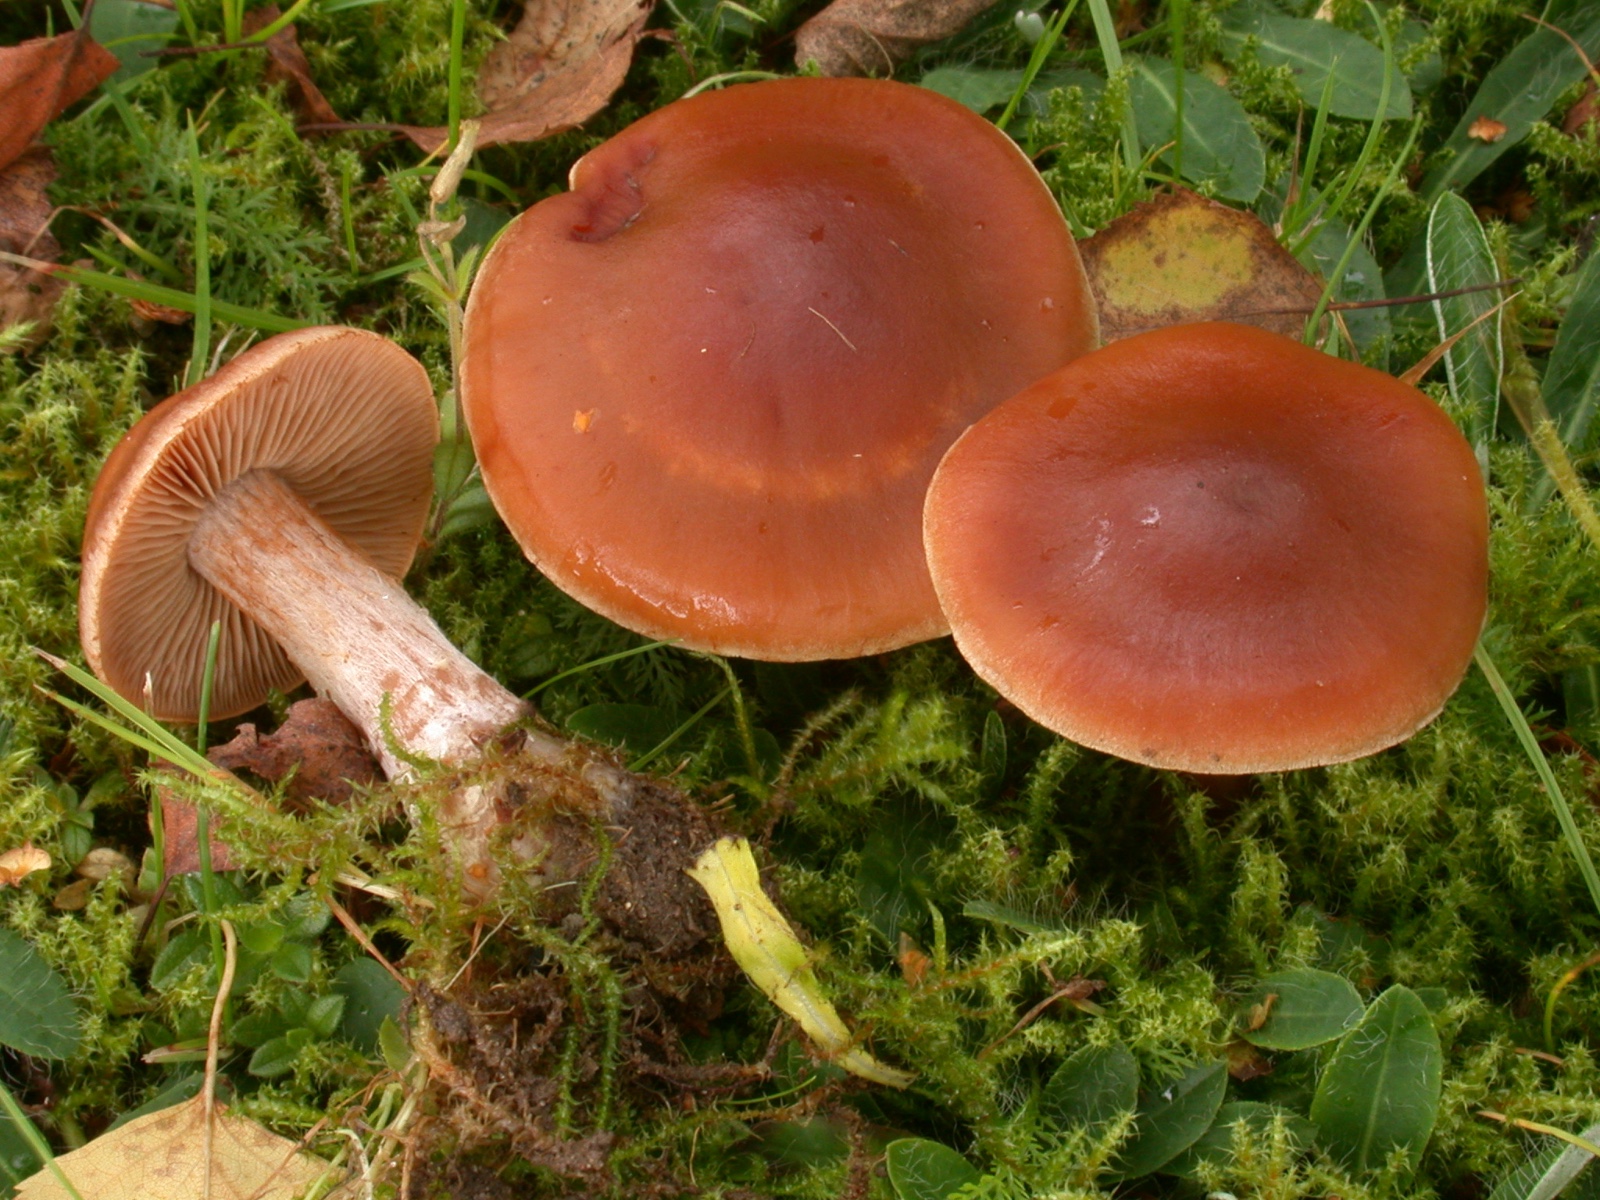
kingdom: Fungi
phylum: Basidiomycota
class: Agaricomycetes
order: Agaricales
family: Cortinariaceae
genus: Cortinarius
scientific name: Cortinarius subbalaustinus
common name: birke-slørhat
